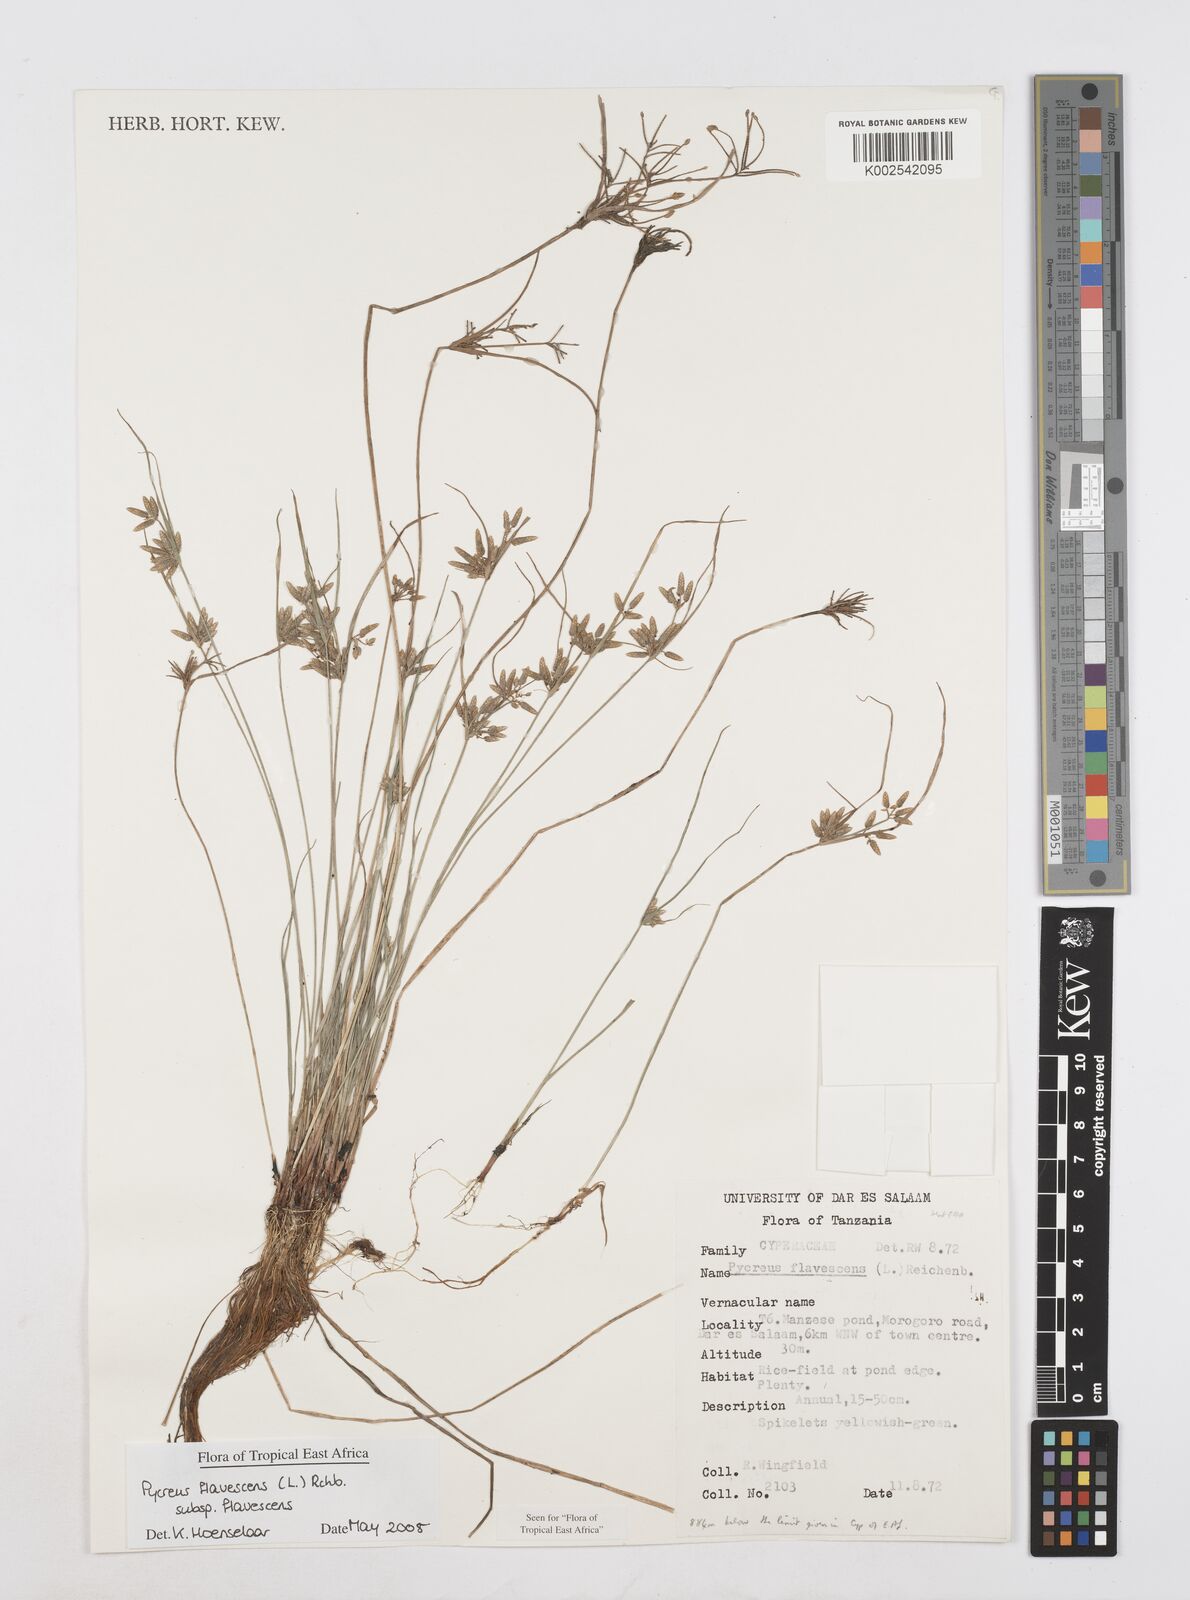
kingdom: Plantae
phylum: Tracheophyta
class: Liliopsida
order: Poales
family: Cyperaceae
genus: Cyperus
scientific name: Cyperus flavescens
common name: Yellow galingale
